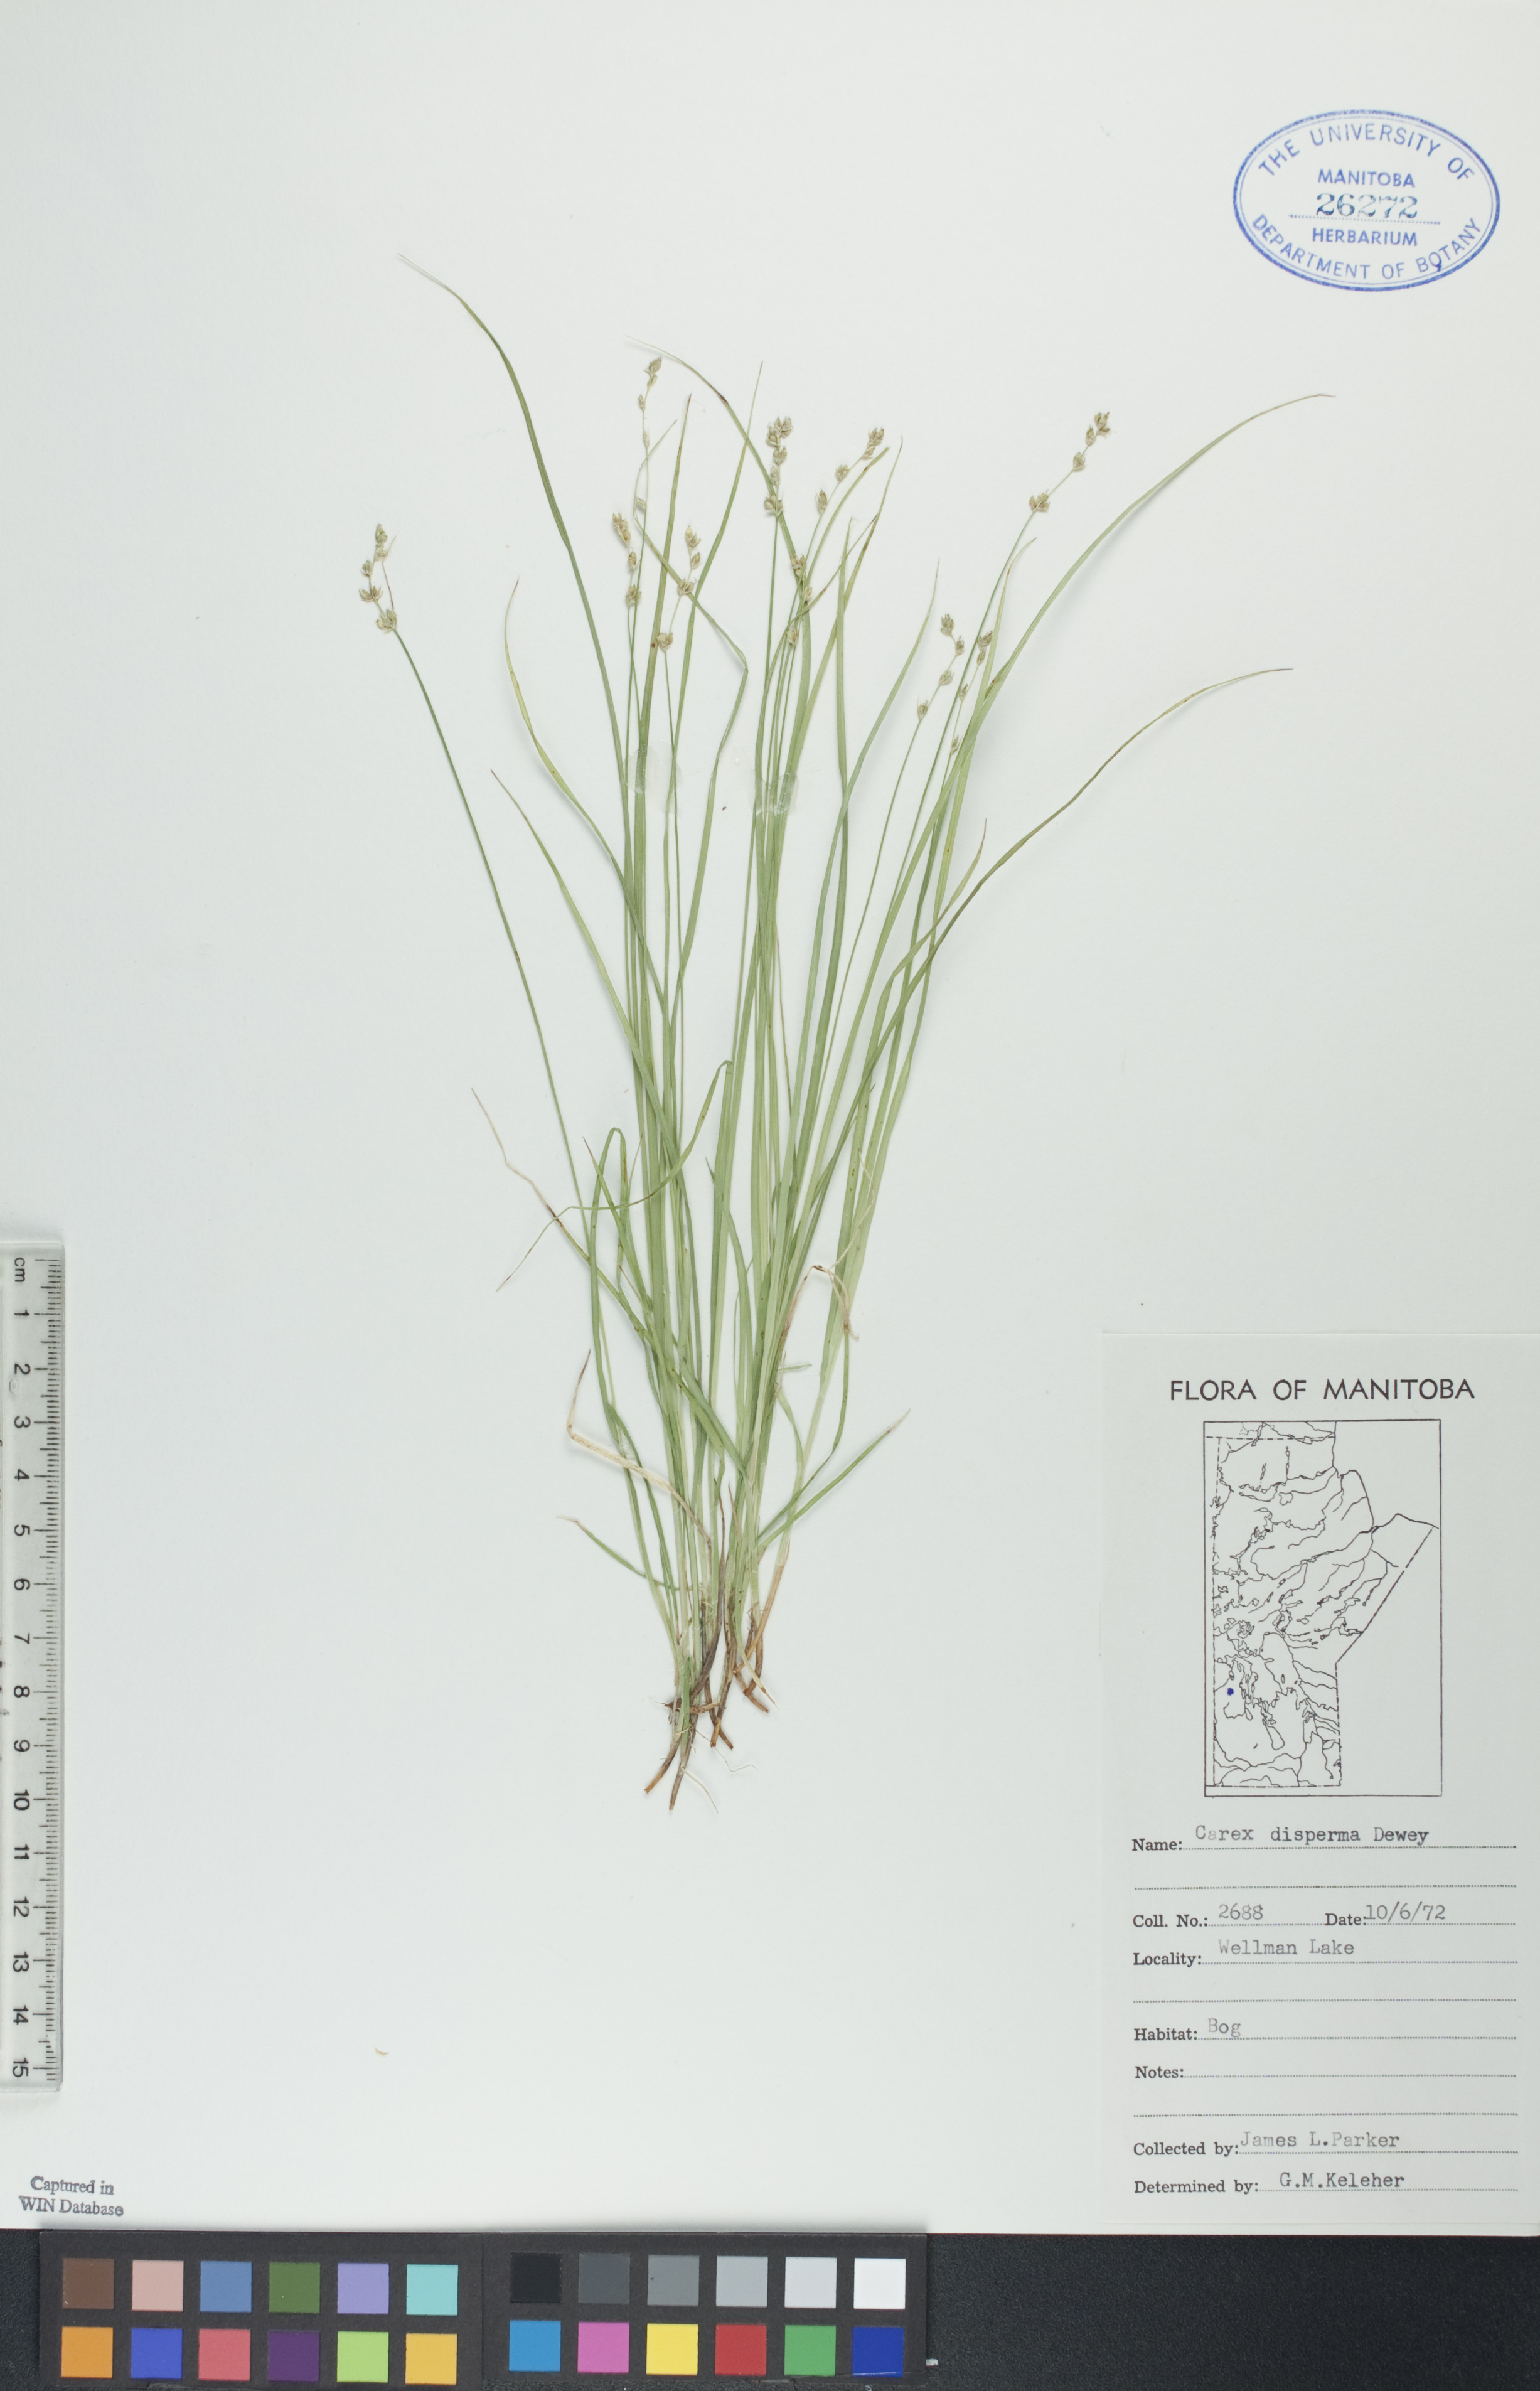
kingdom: Plantae
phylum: Tracheophyta
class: Liliopsida
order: Poales
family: Cyperaceae
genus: Carex
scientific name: Carex disperma
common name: Short-leaved sedge
